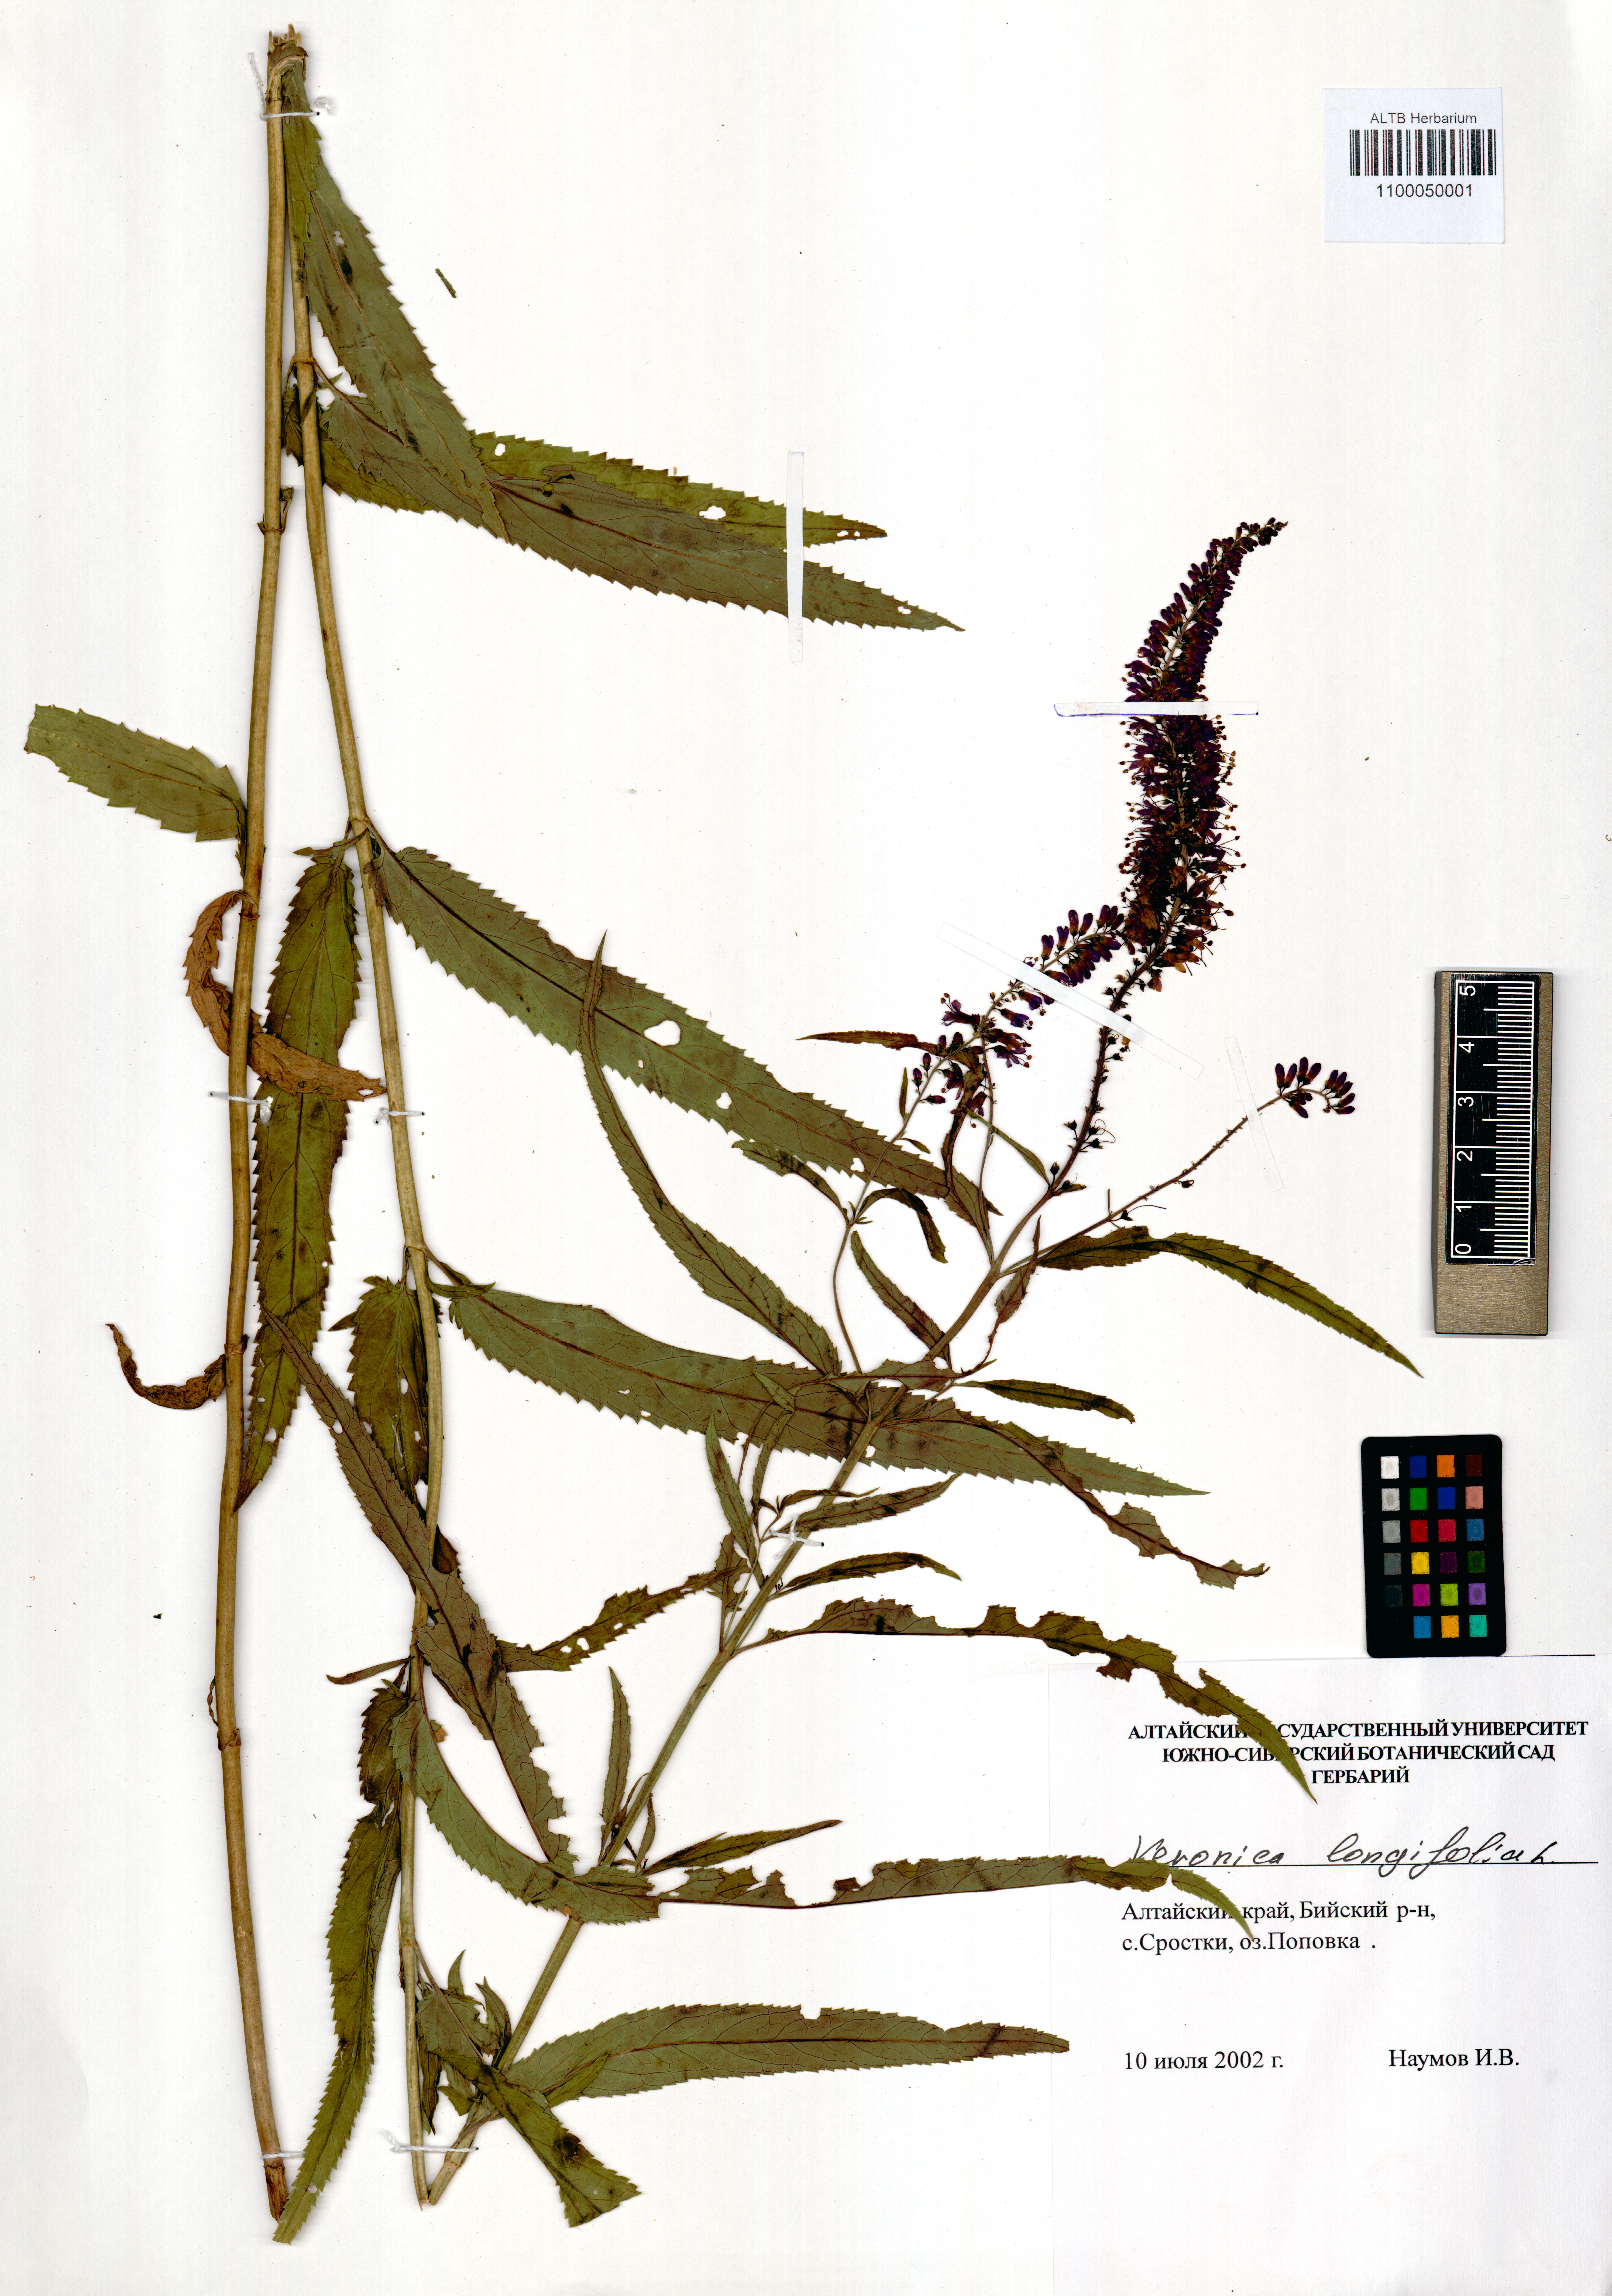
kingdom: Plantae
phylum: Tracheophyta
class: Magnoliopsida
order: Lamiales
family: Plantaginaceae
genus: Veronica
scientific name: Veronica longifolia
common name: Garden speedwell
